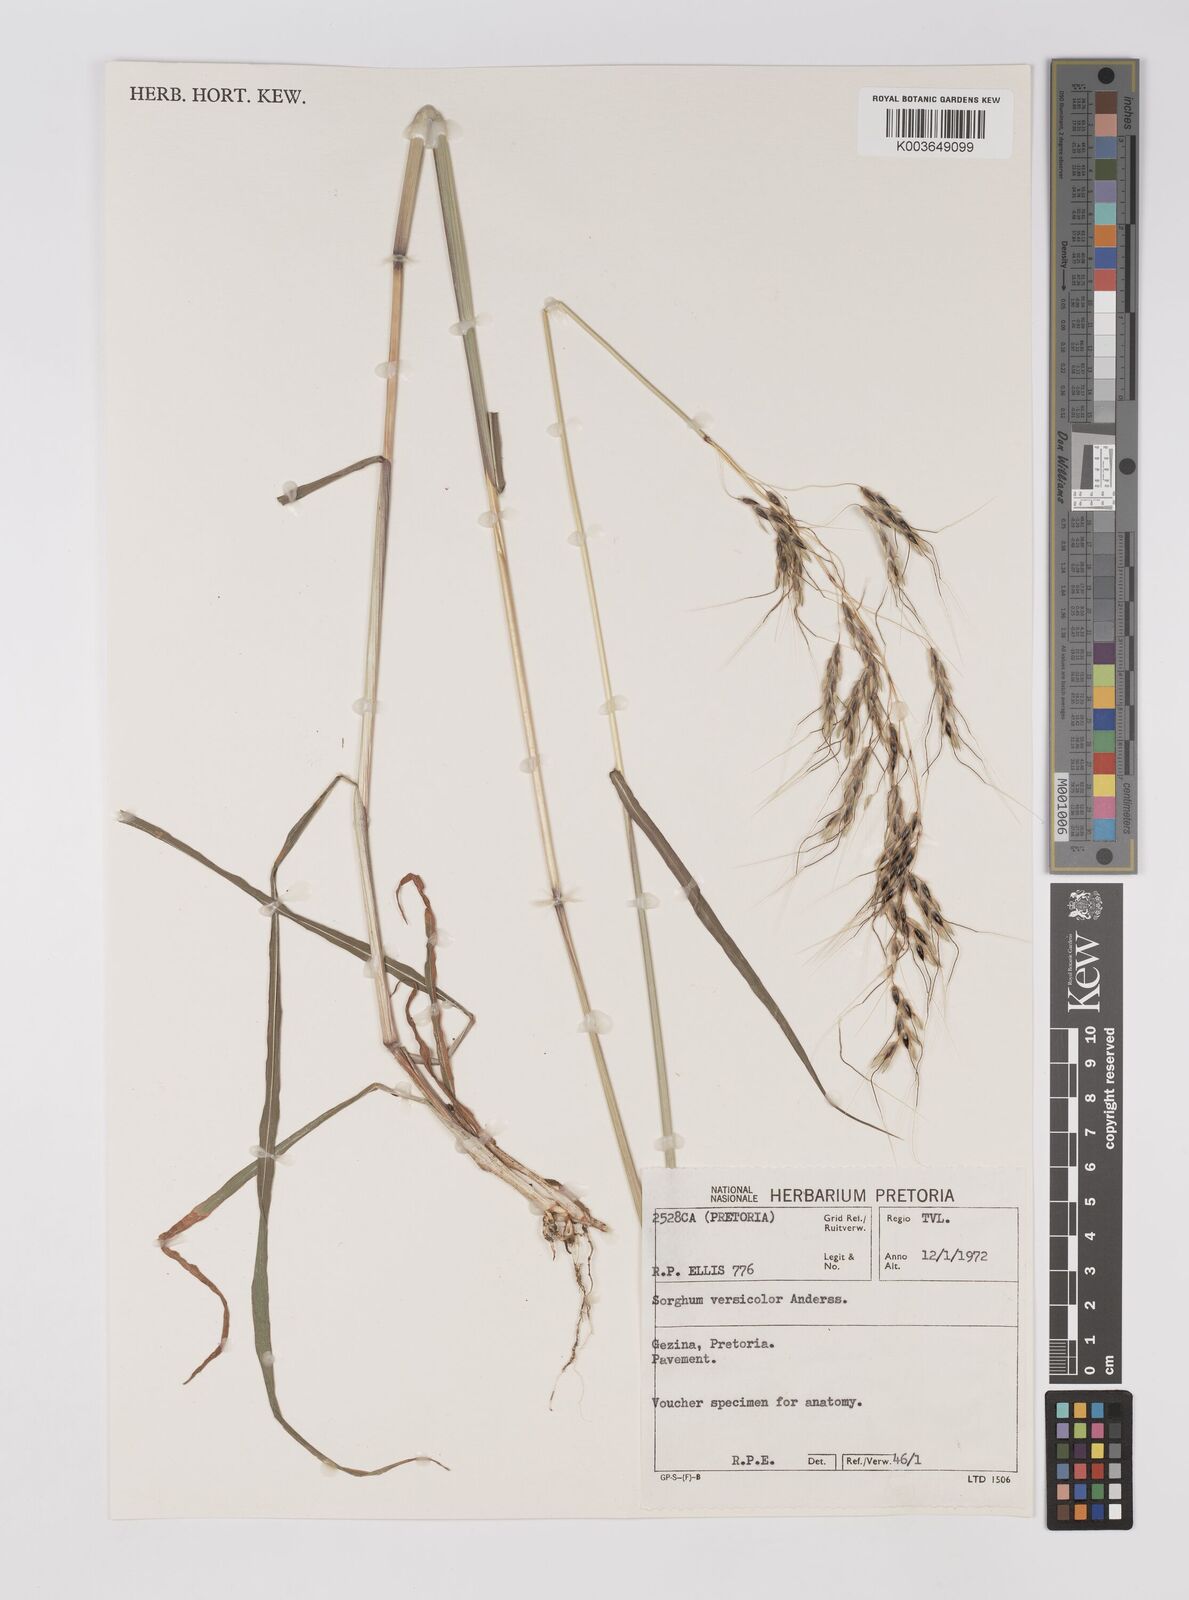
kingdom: Plantae
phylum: Tracheophyta
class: Liliopsida
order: Poales
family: Poaceae
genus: Sarga
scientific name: Sarga versicolor
